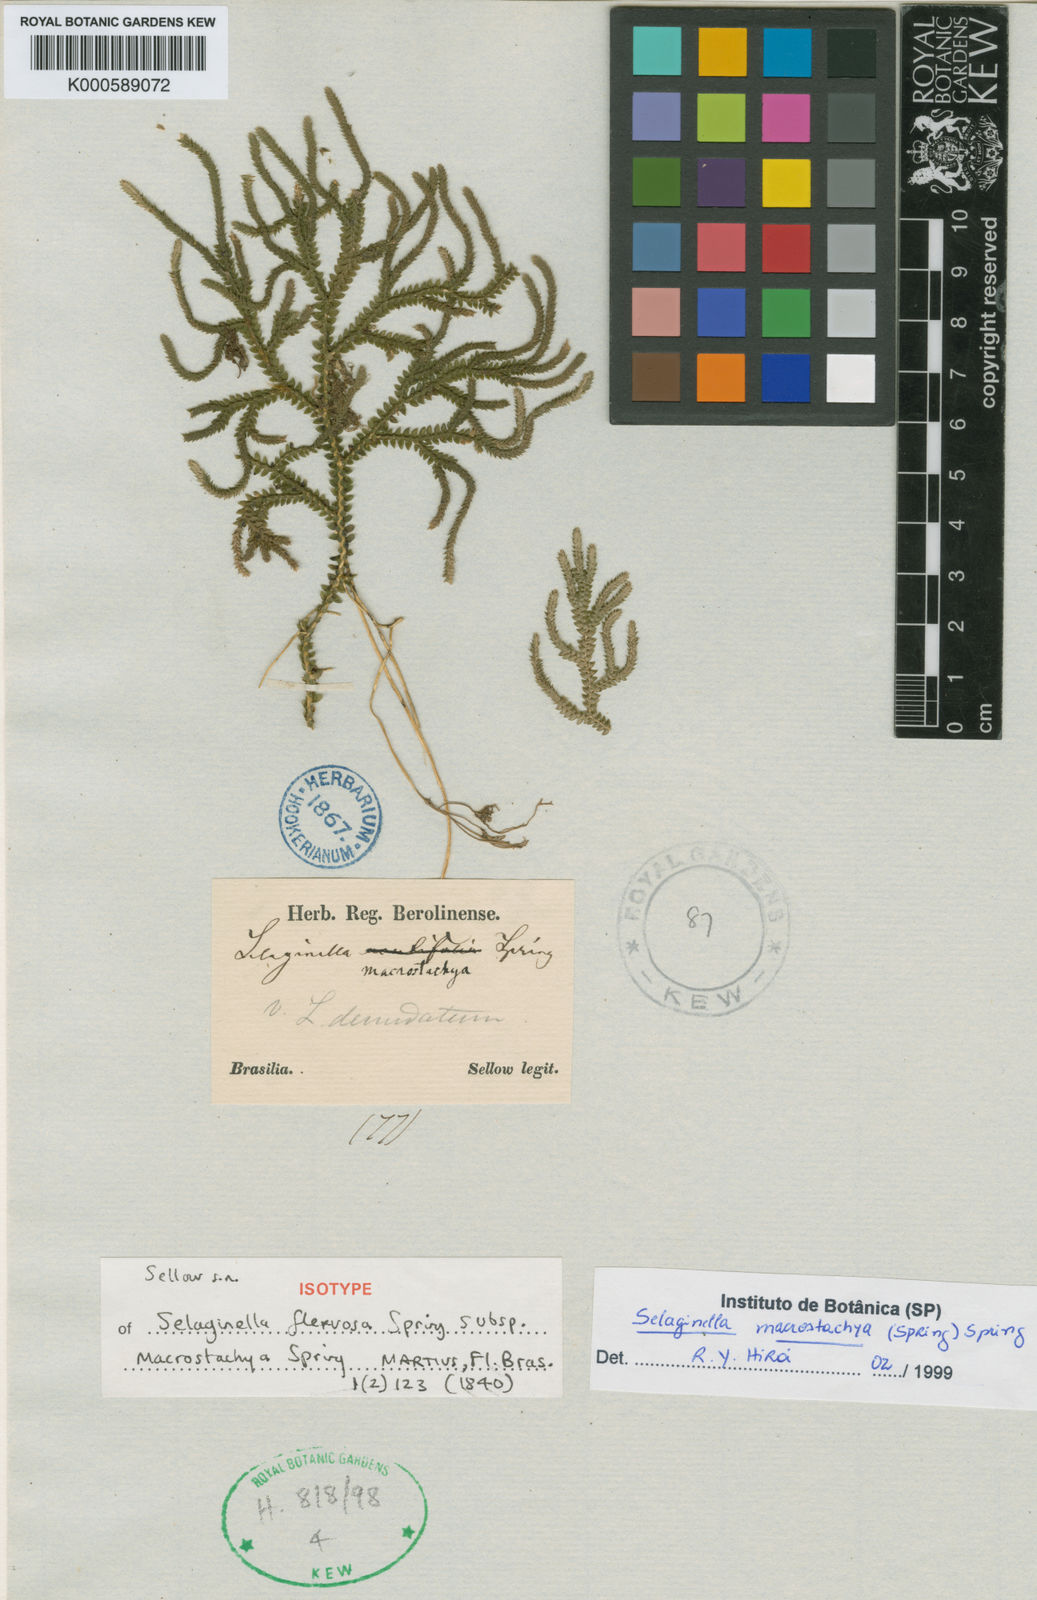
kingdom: Plantae
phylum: Tracheophyta
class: Lycopodiopsida
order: Selaginellales
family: Selaginellaceae
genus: Selaginella
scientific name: Selaginella macrostachya
